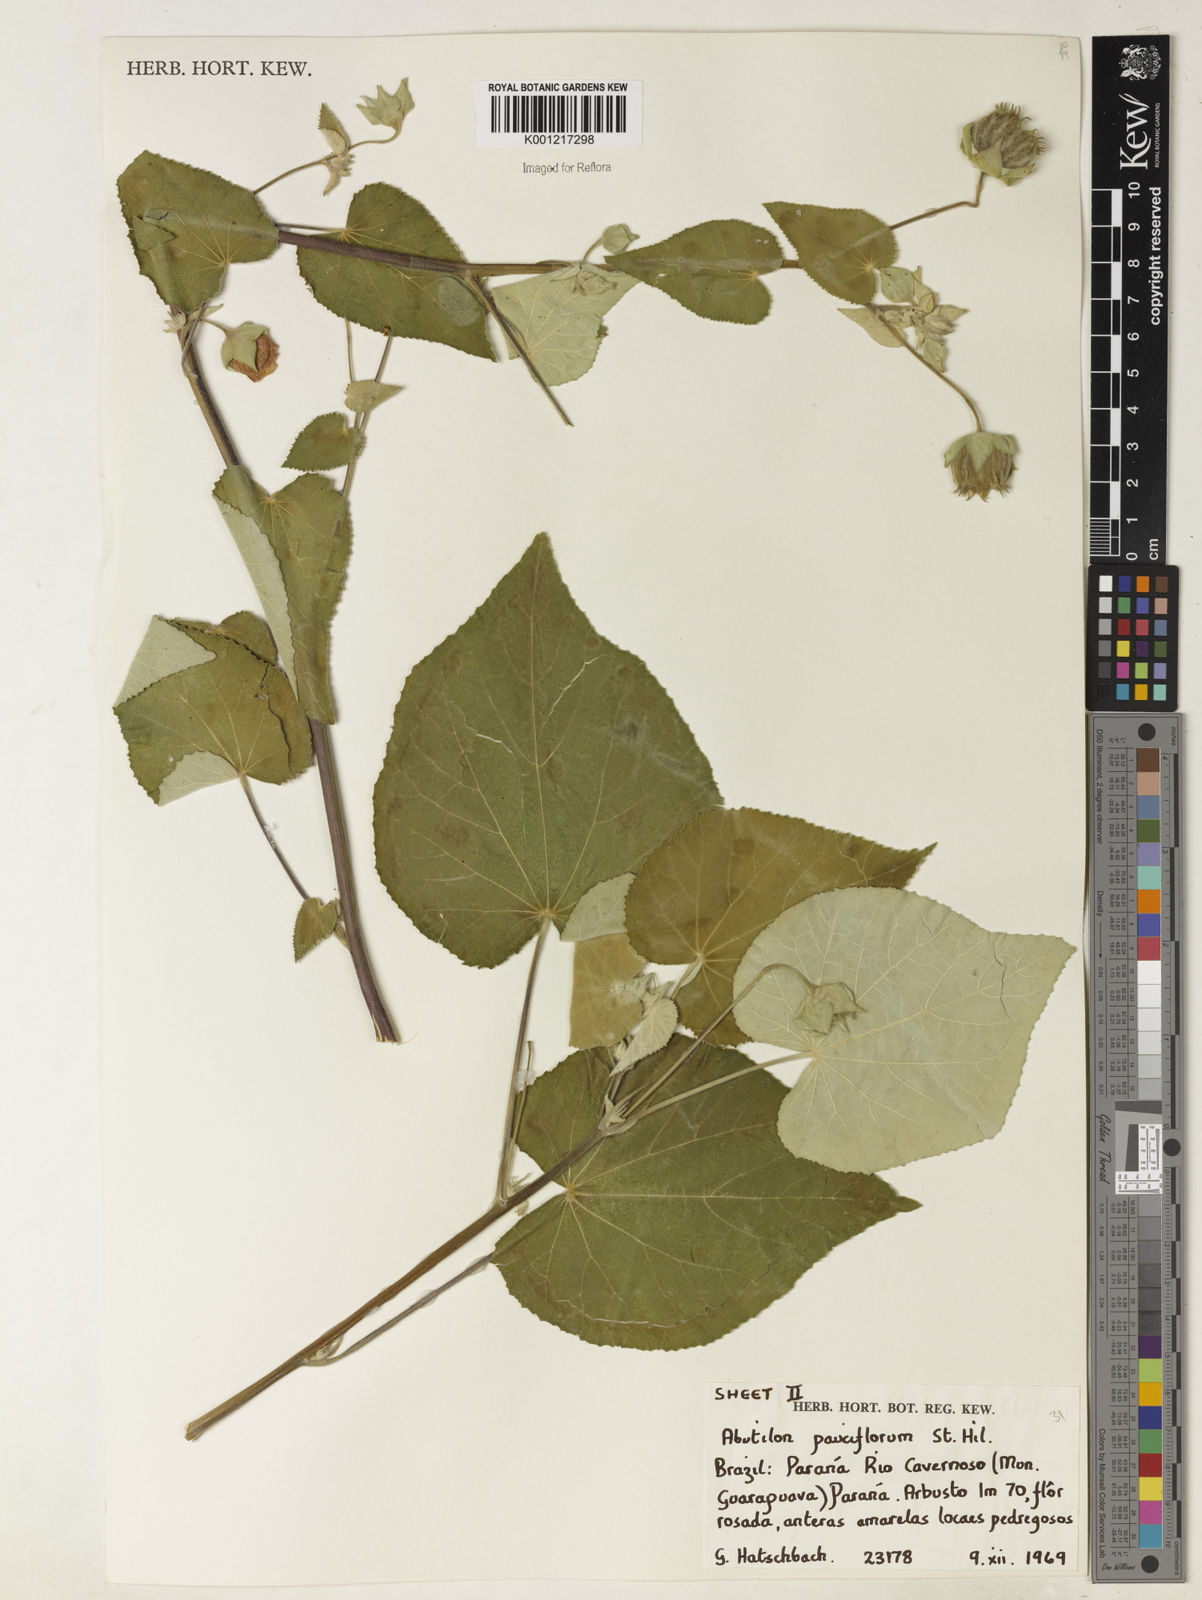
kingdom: Plantae
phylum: Tracheophyta
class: Magnoliopsida
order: Malvales
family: Malvaceae
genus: Callianthe
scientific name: Callianthe pauciflora
